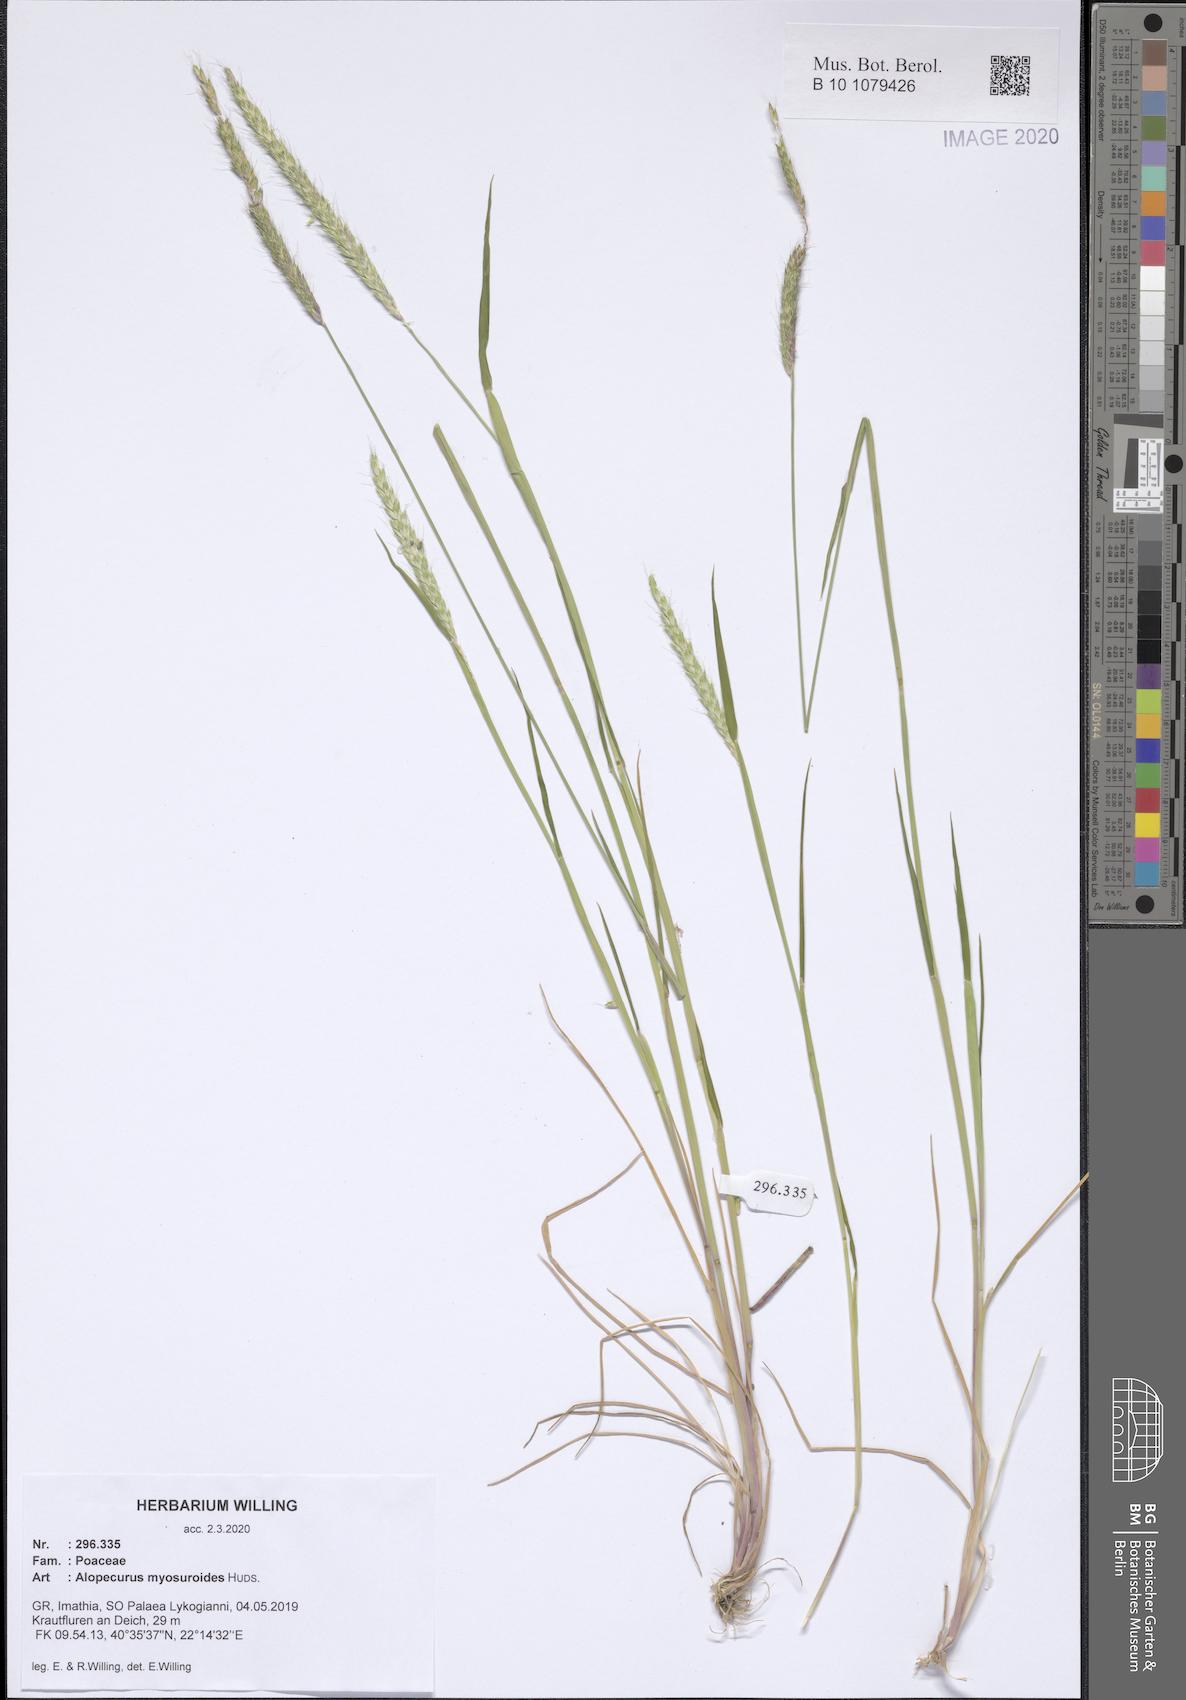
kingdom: Plantae
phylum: Tracheophyta
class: Liliopsida
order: Poales
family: Poaceae
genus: Alopecurus
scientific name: Alopecurus myosuroides
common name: Black-grass
